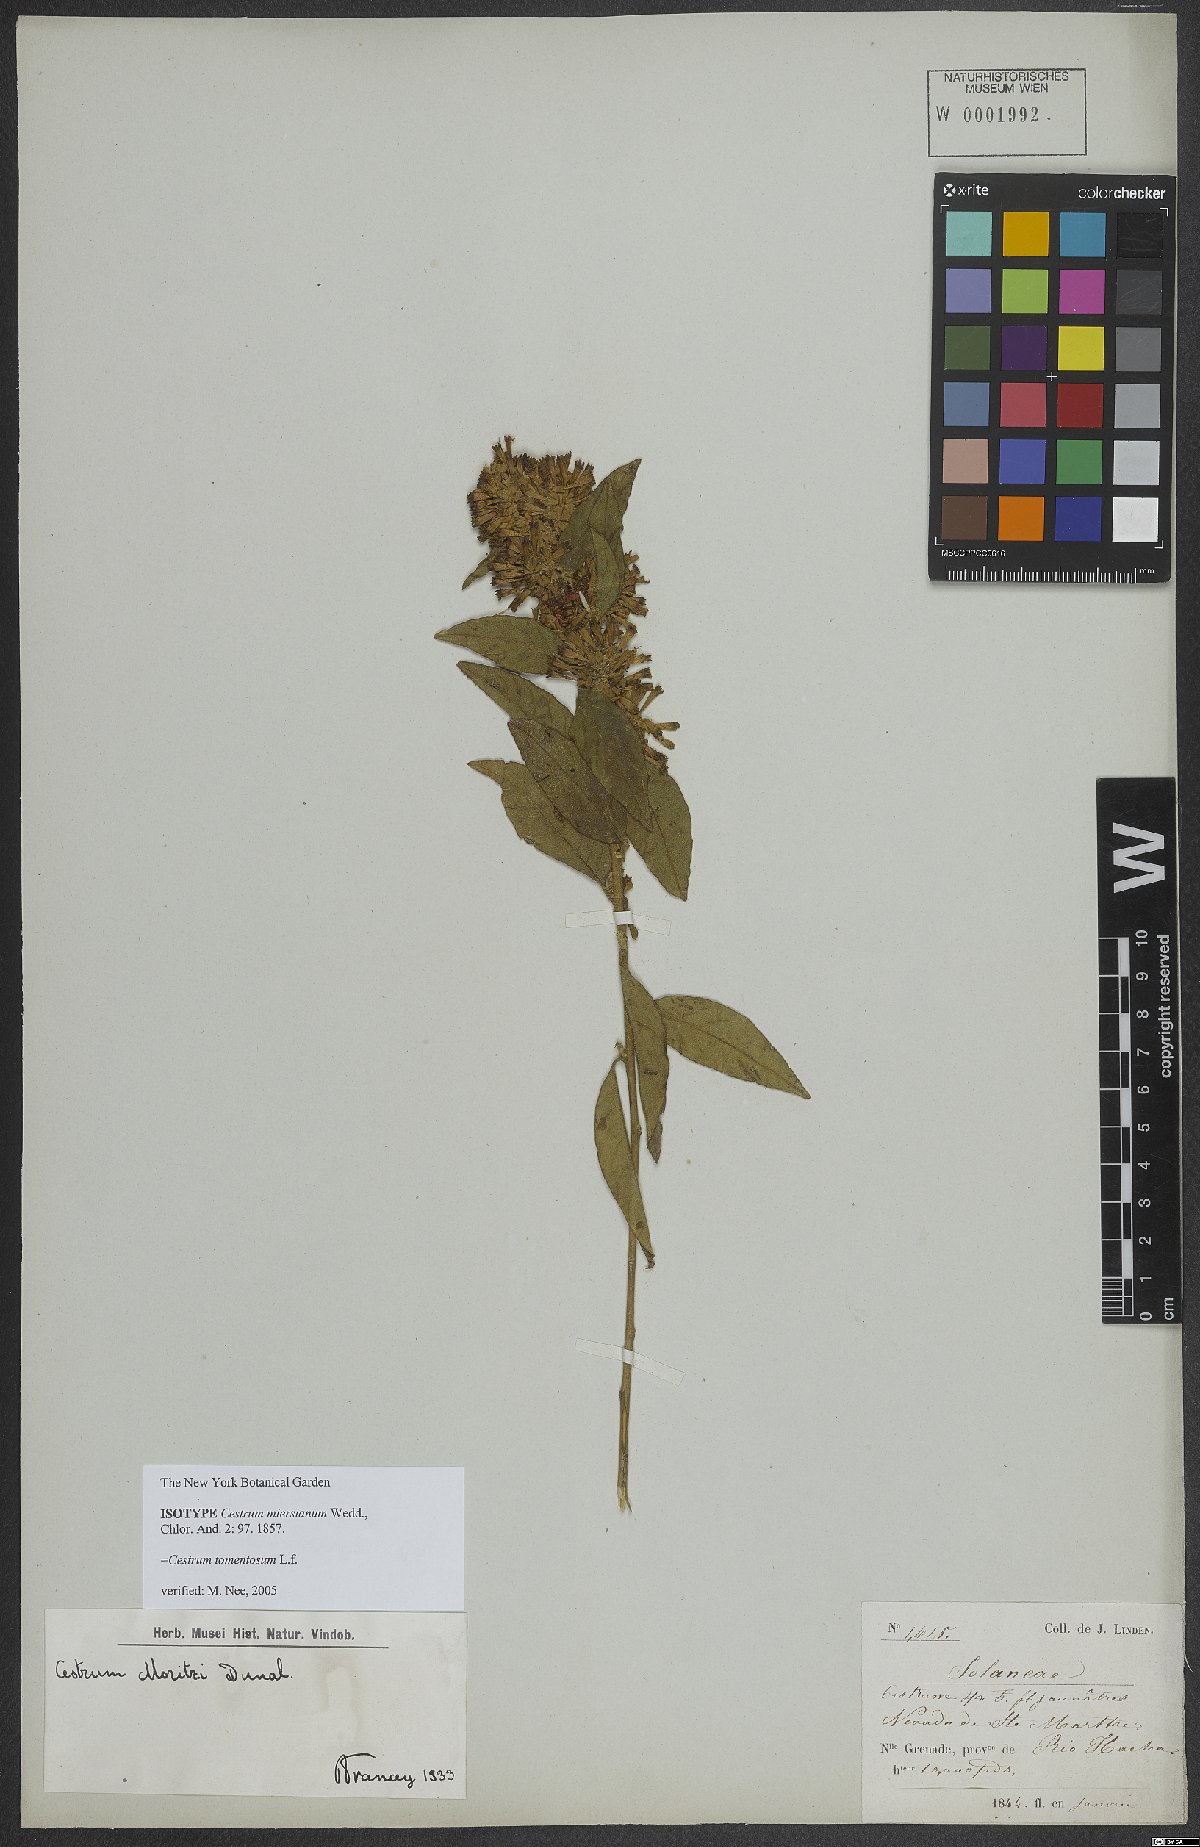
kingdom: Plantae
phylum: Tracheophyta
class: Magnoliopsida
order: Solanales
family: Solanaceae
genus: Cestrum
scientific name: Cestrum tomentosum
